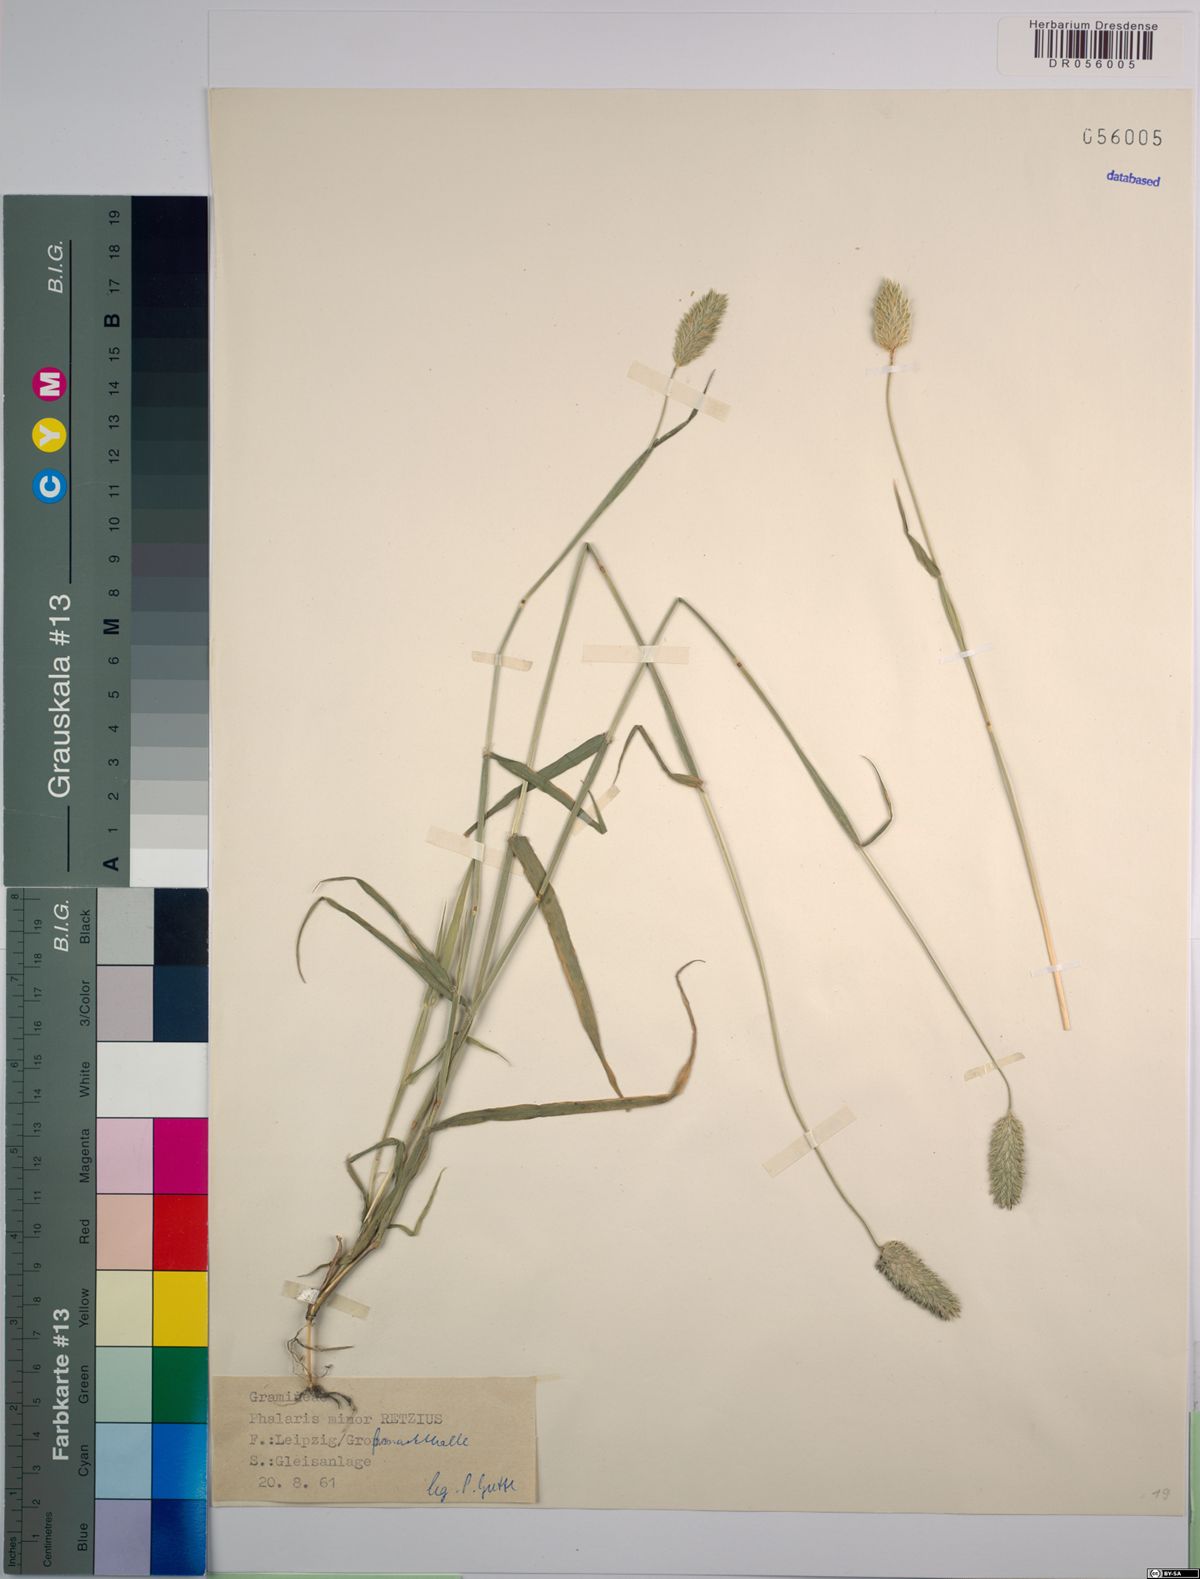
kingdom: Plantae
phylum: Tracheophyta
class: Liliopsida
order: Poales
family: Poaceae
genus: Phalaris
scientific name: Phalaris minor
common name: Littleseed canarygrass
